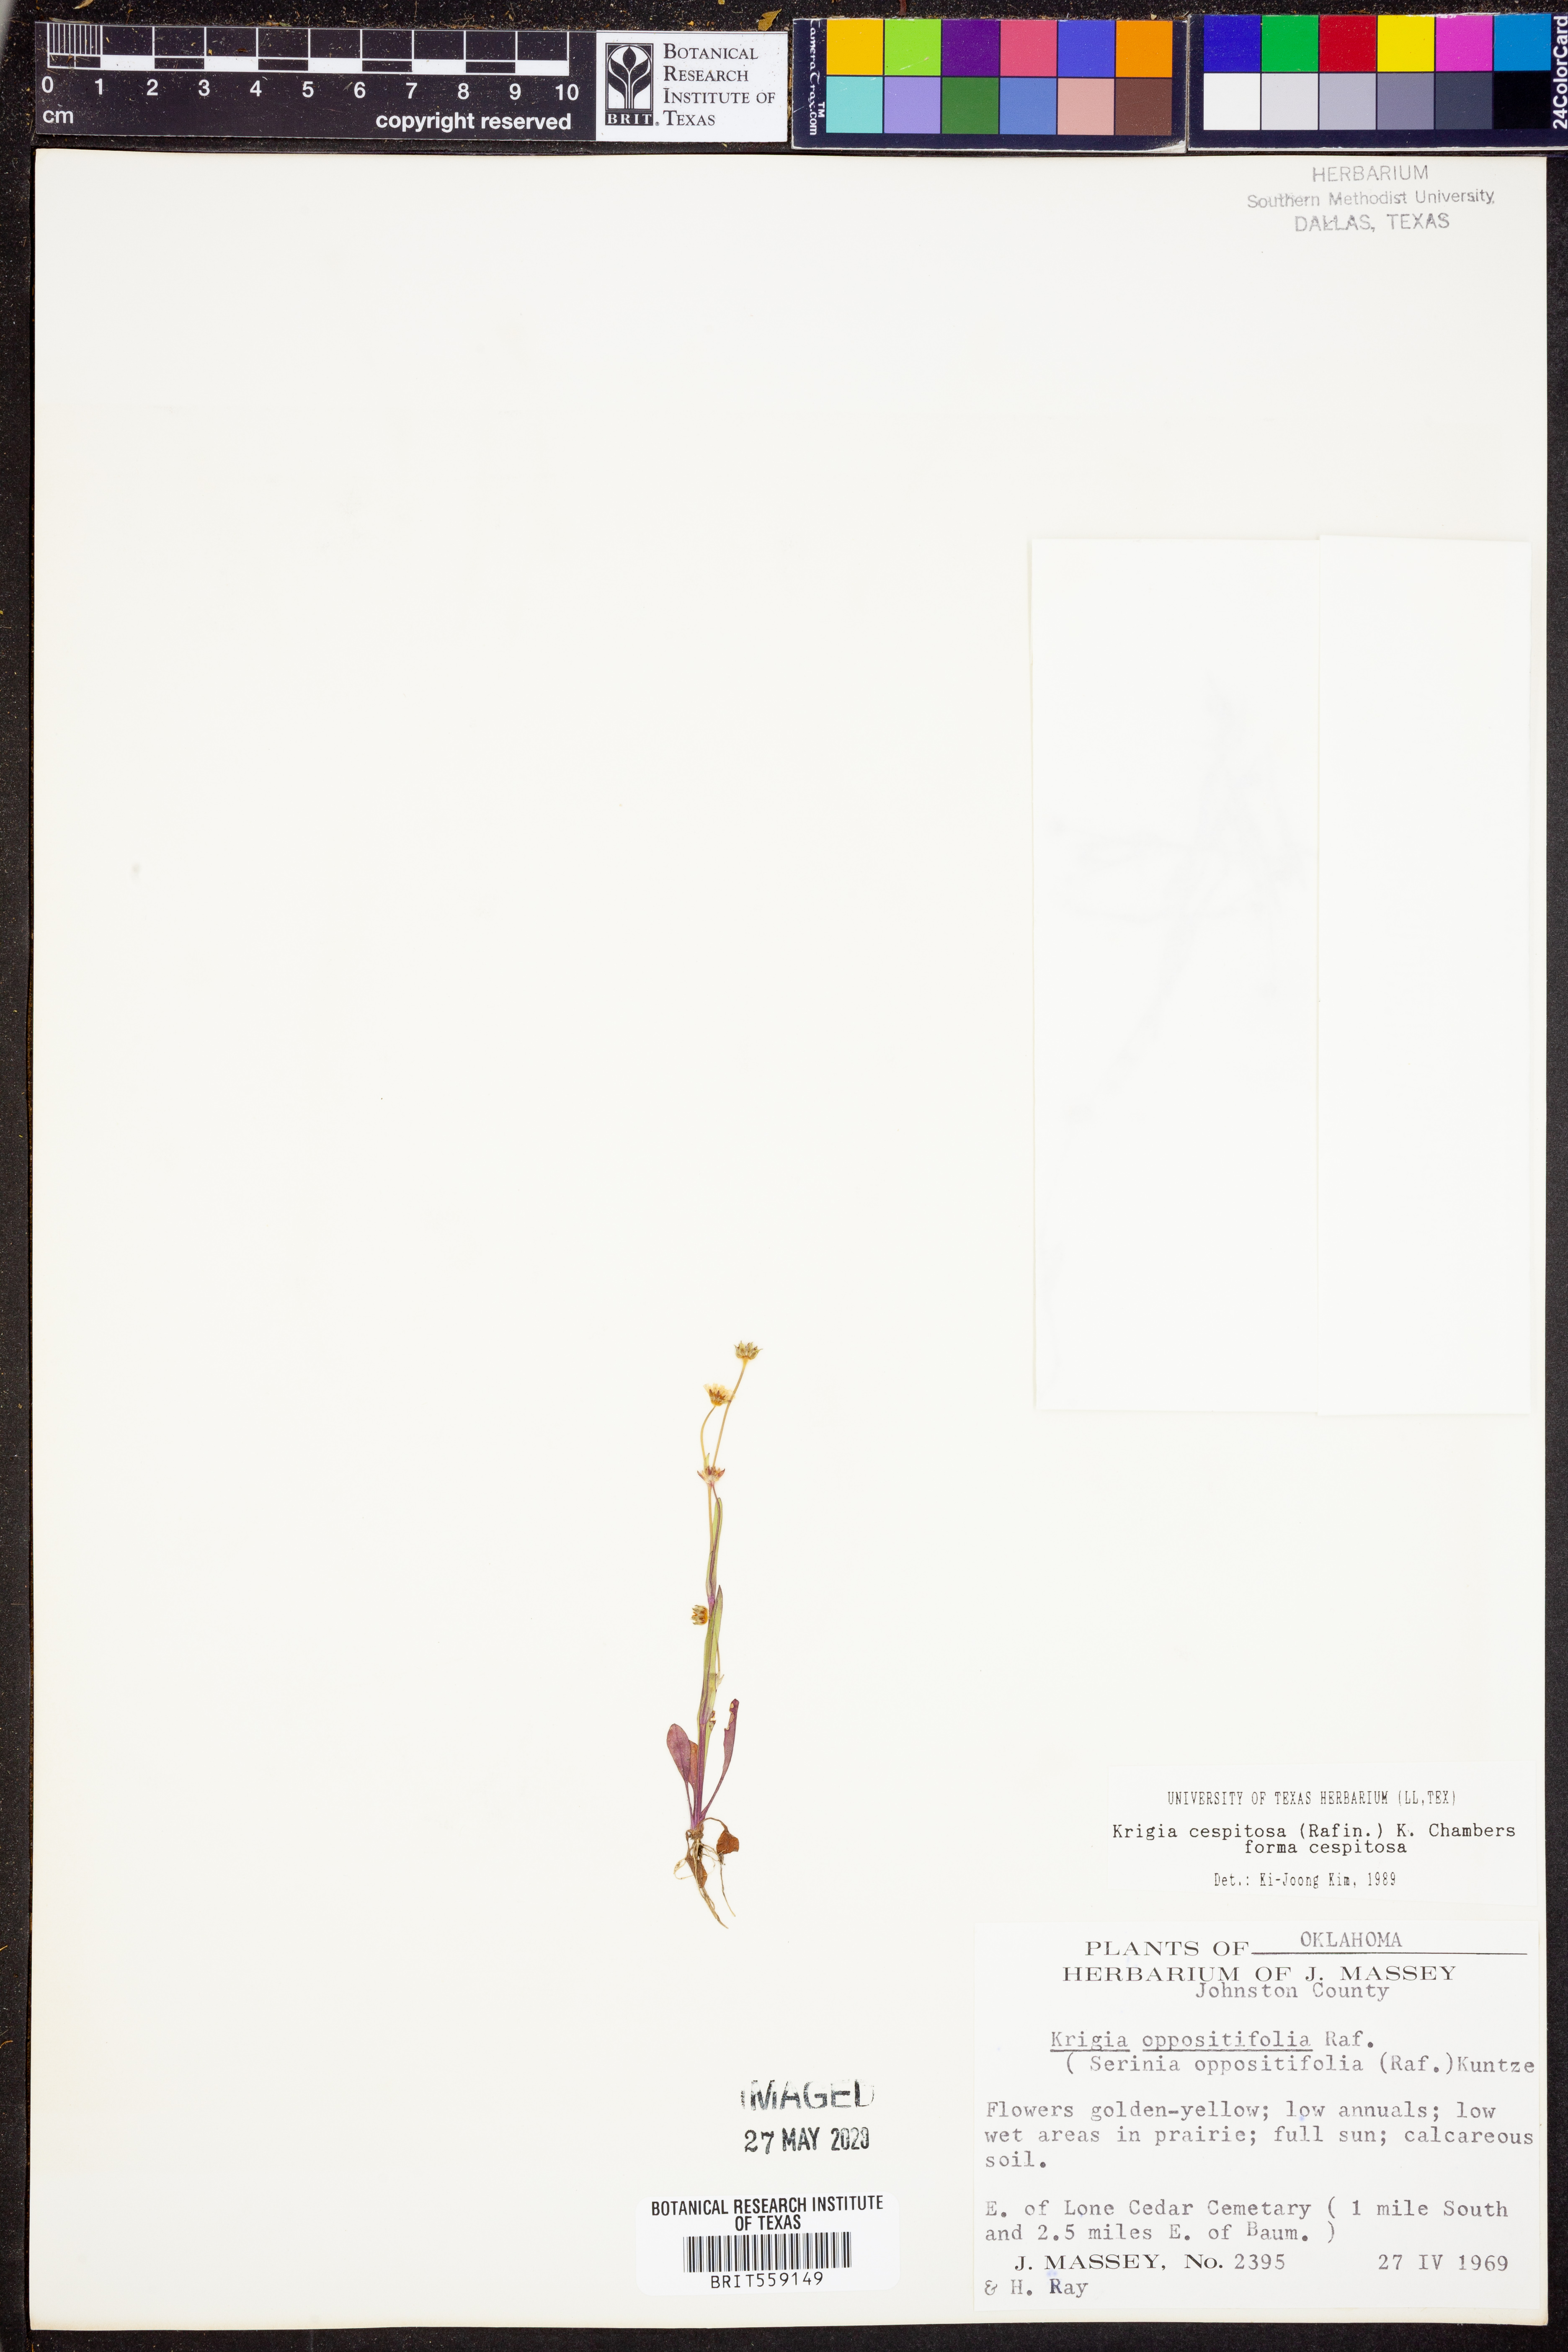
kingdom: Plantae
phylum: Tracheophyta
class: Magnoliopsida
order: Asterales
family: Asteraceae
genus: Krigia
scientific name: Krigia cespitosa
